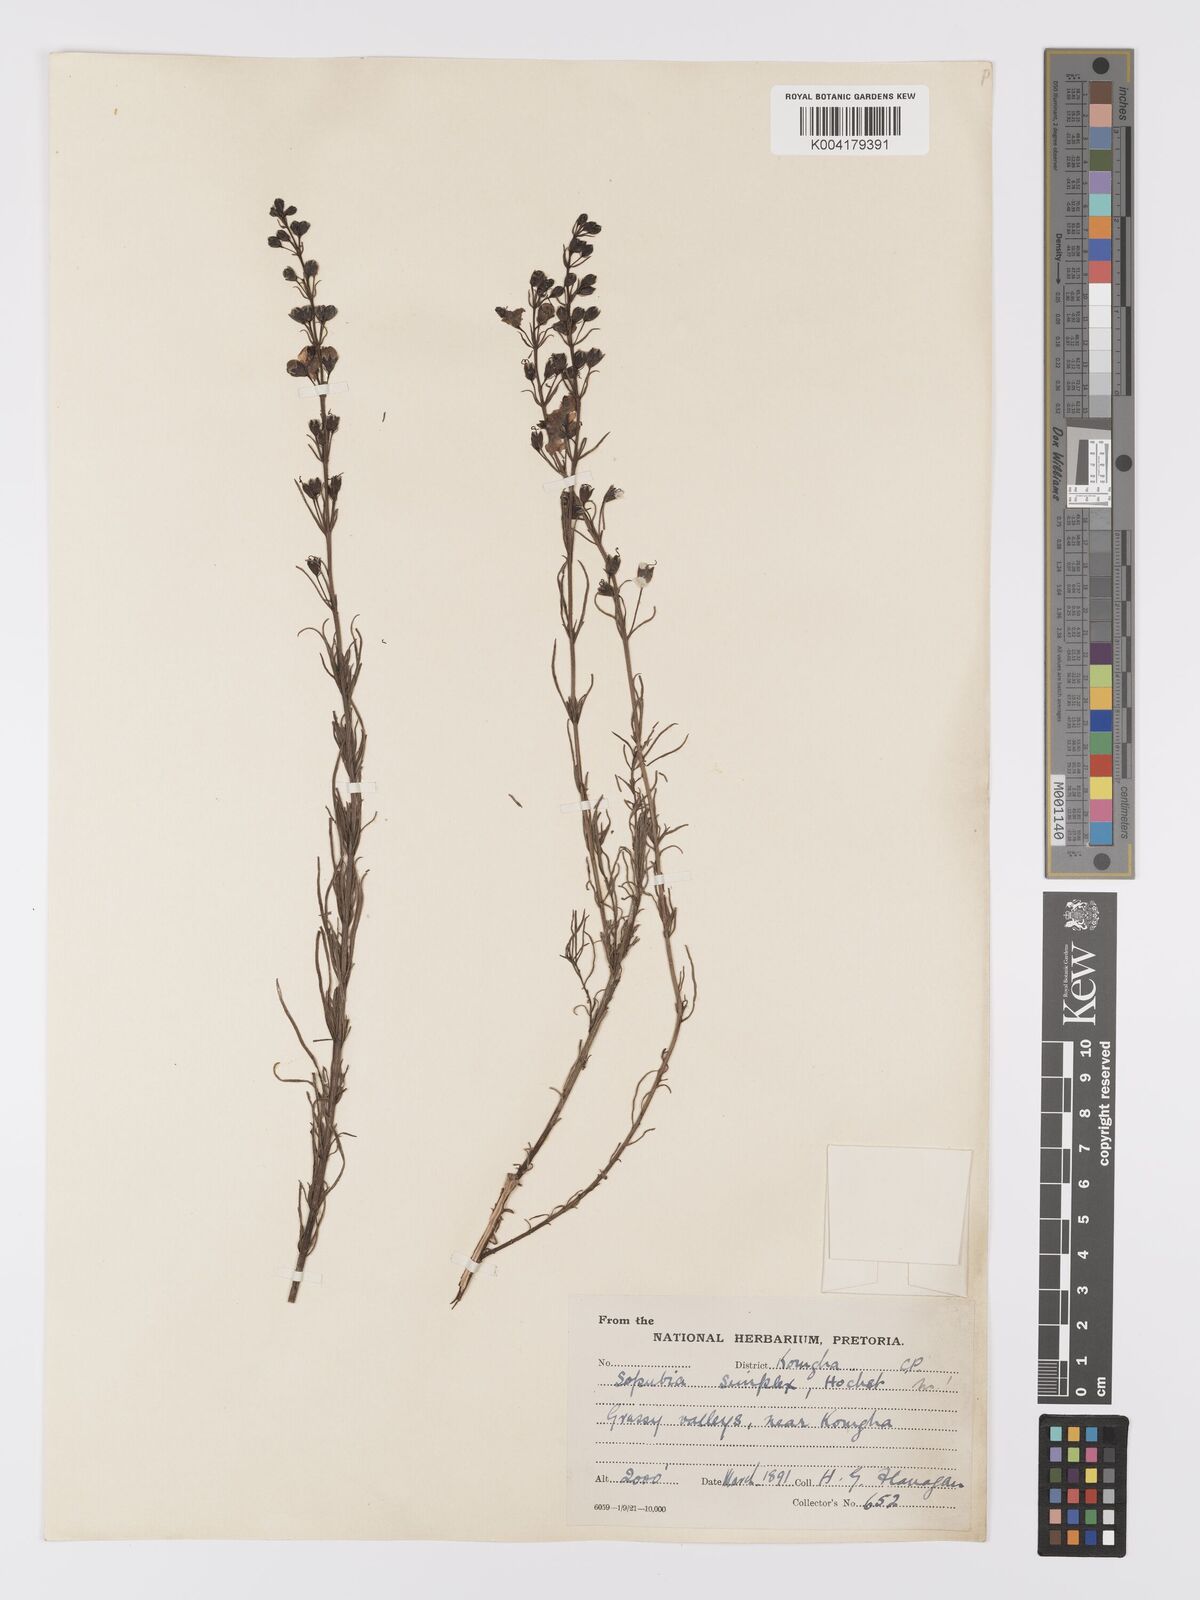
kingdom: Plantae
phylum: Tracheophyta
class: Magnoliopsida
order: Lamiales
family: Orobanchaceae
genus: Sopubia
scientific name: Sopubia simplex
